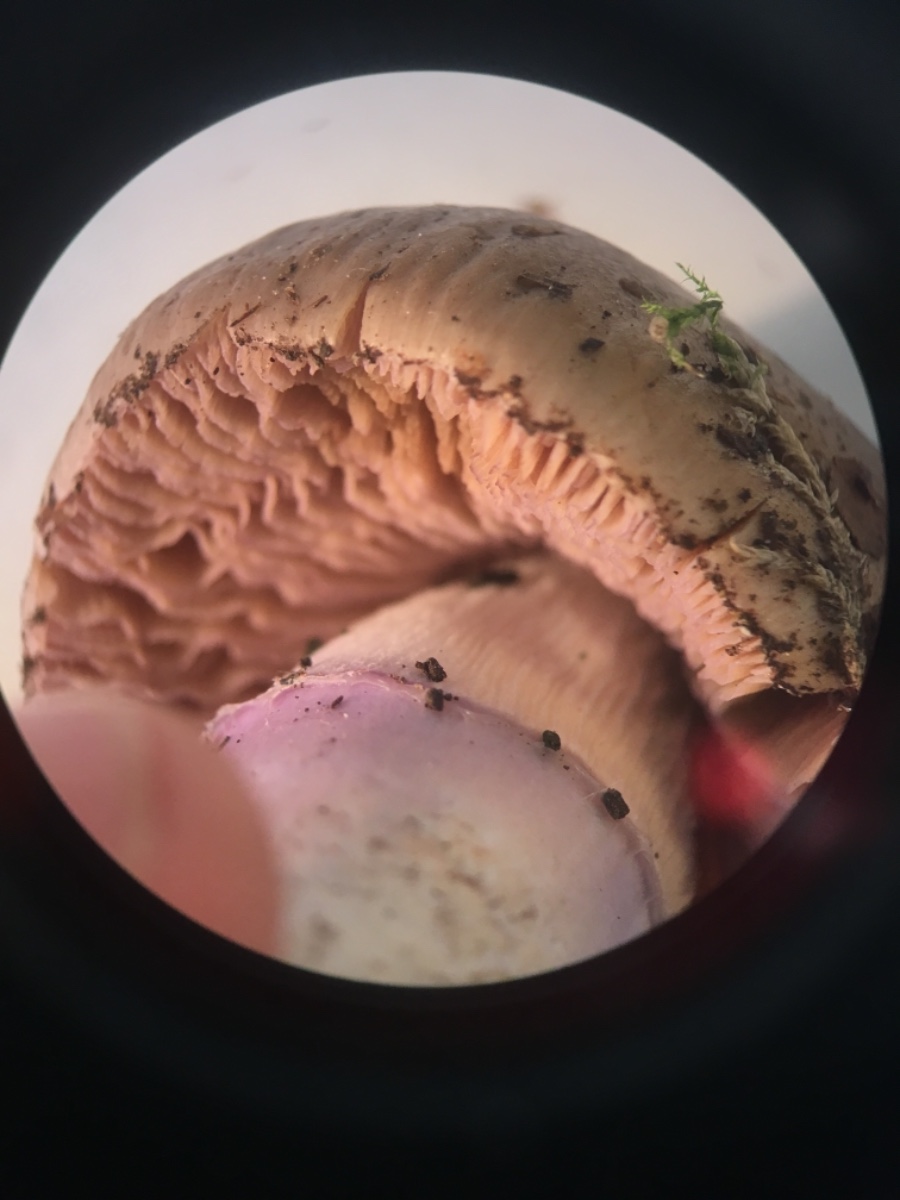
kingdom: Fungi
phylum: Basidiomycota
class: Agaricomycetes
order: Agaricales
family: Cortinariaceae
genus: Cortinarius
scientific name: Cortinarius elatior
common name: høj slørhat
